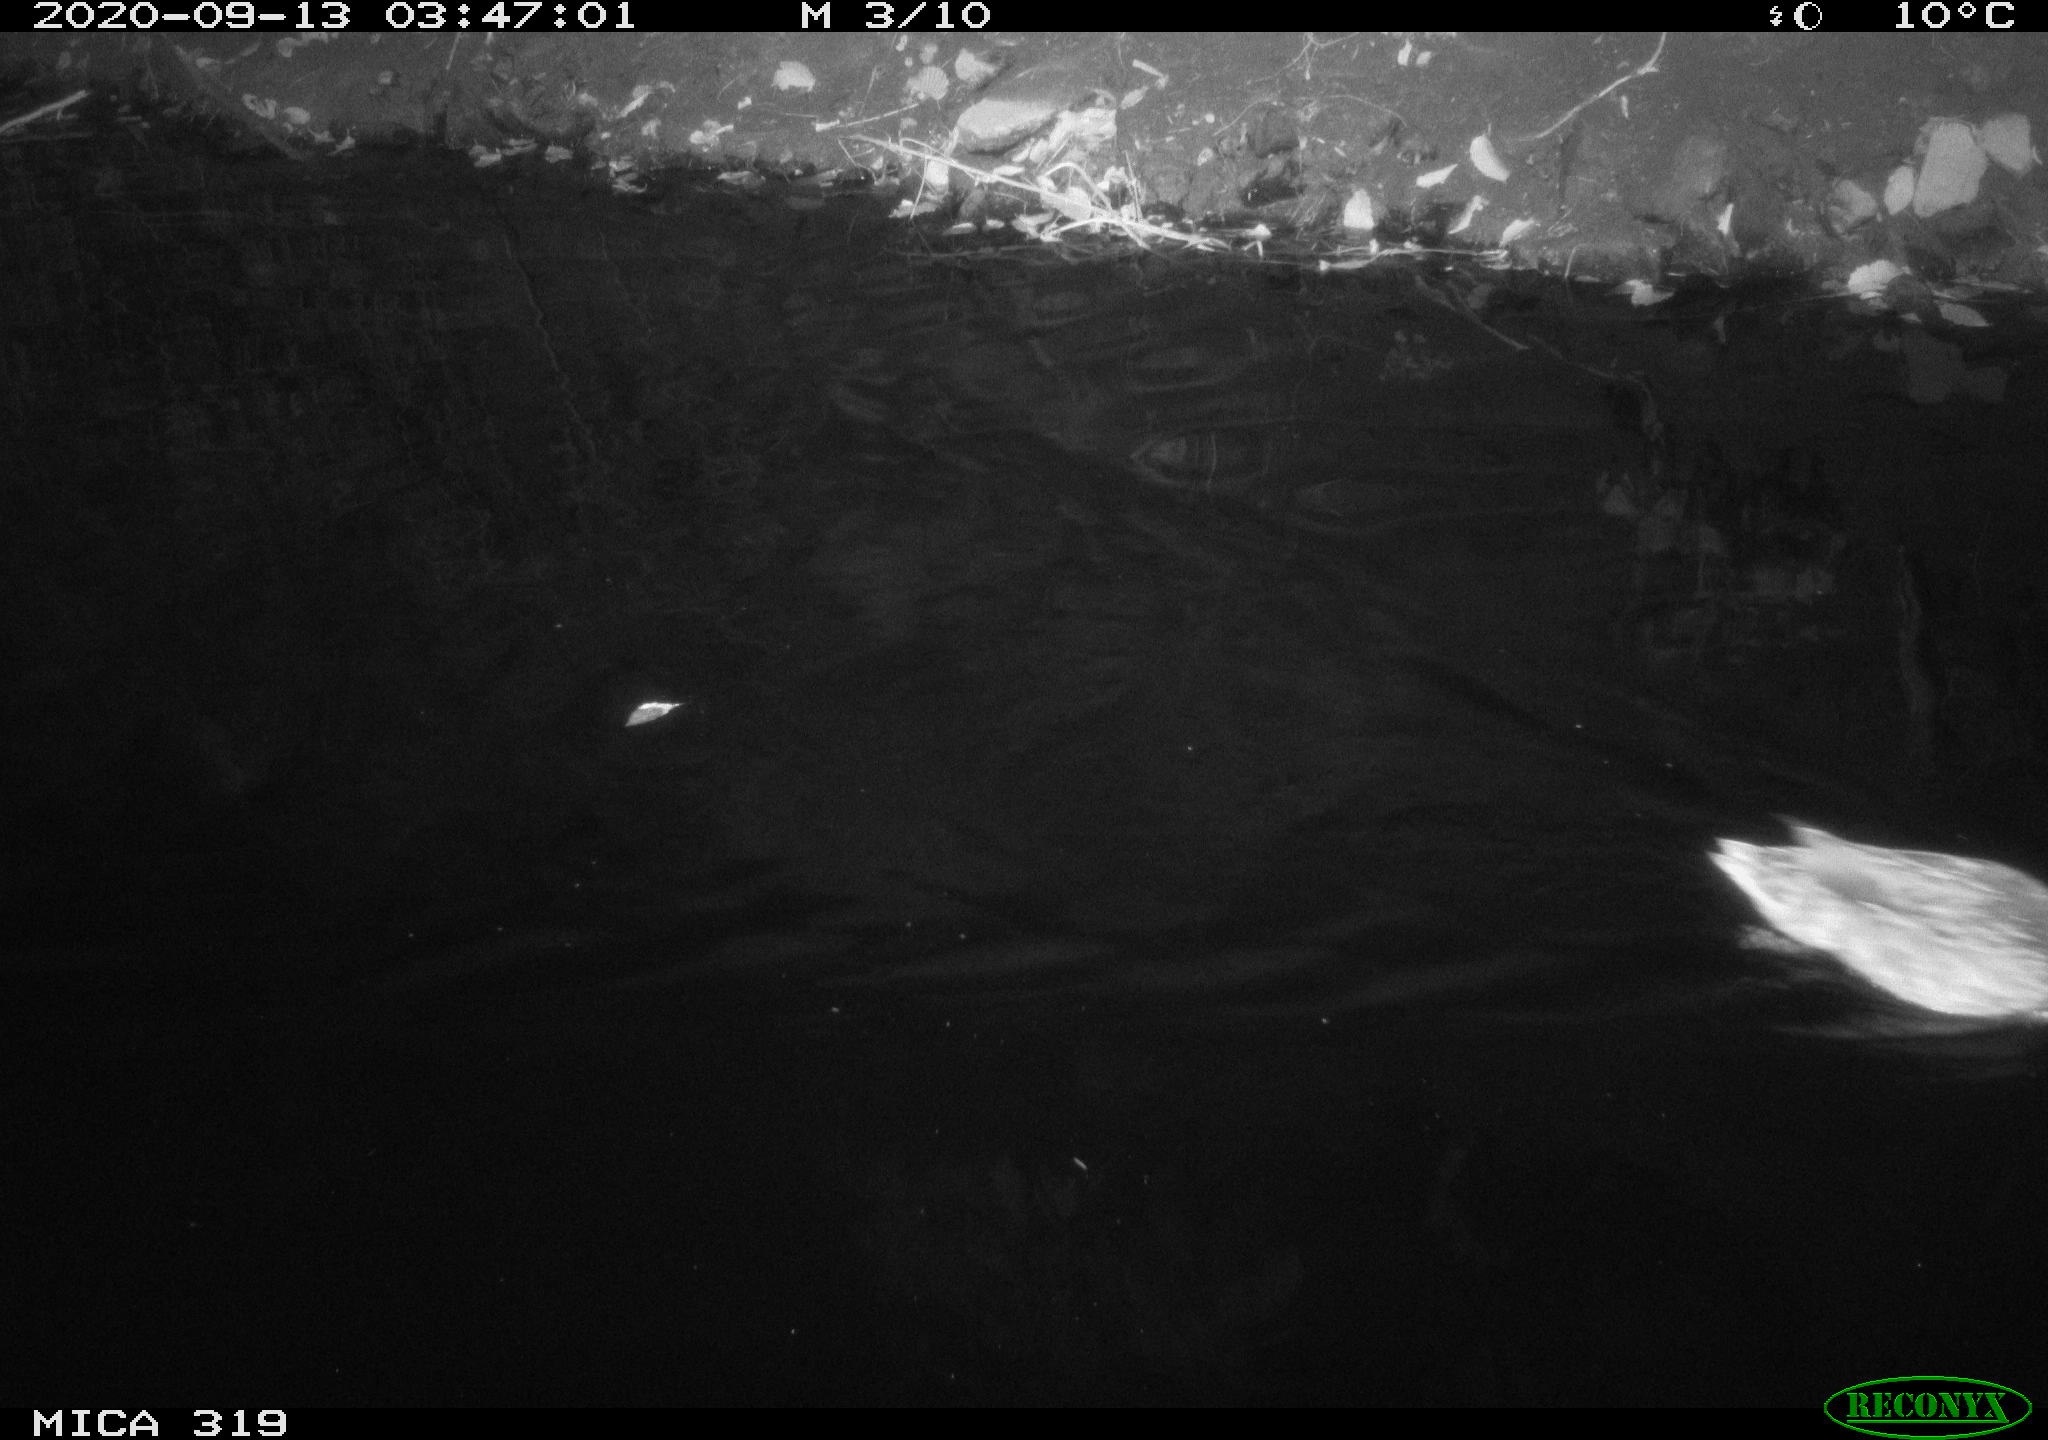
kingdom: Animalia
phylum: Chordata
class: Aves
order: Anseriformes
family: Anatidae
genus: Anas
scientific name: Anas platyrhynchos
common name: Mallard
